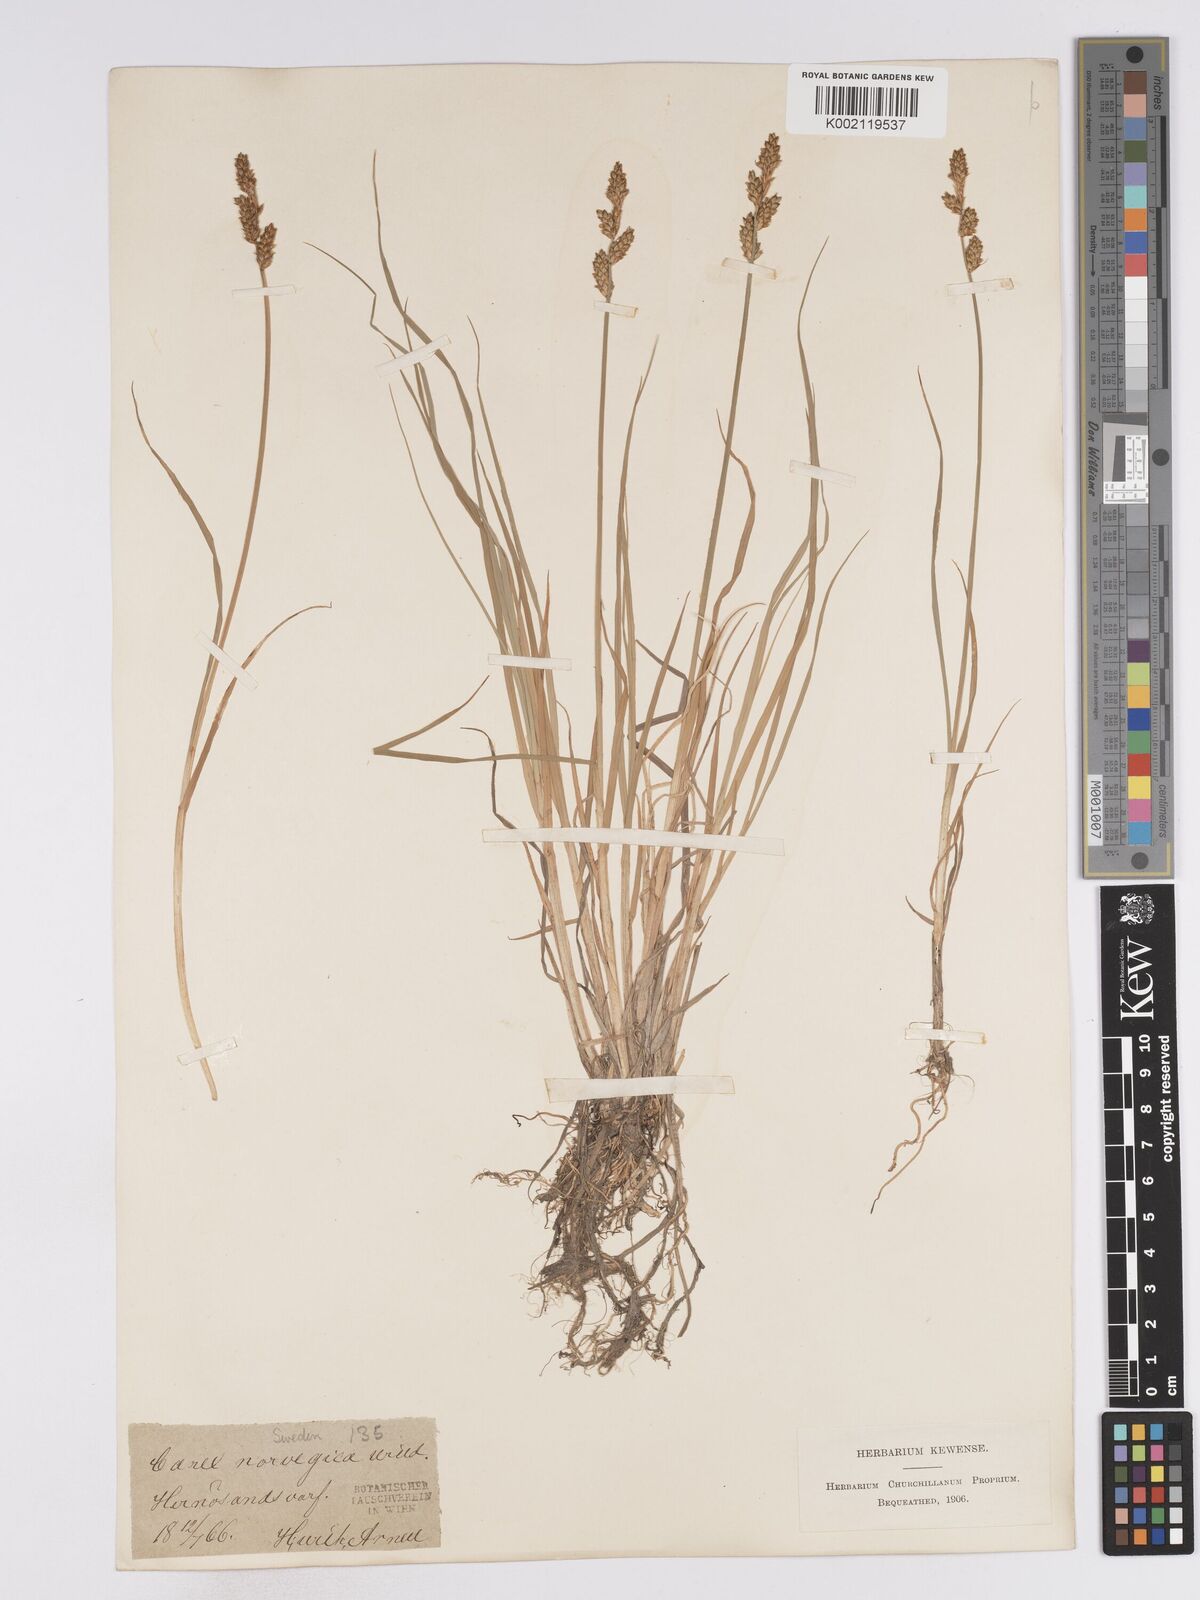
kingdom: Plantae
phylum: Tracheophyta
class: Liliopsida
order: Poales
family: Cyperaceae
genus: Carex
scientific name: Carex mackenziei
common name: Mackenzie's sedge
